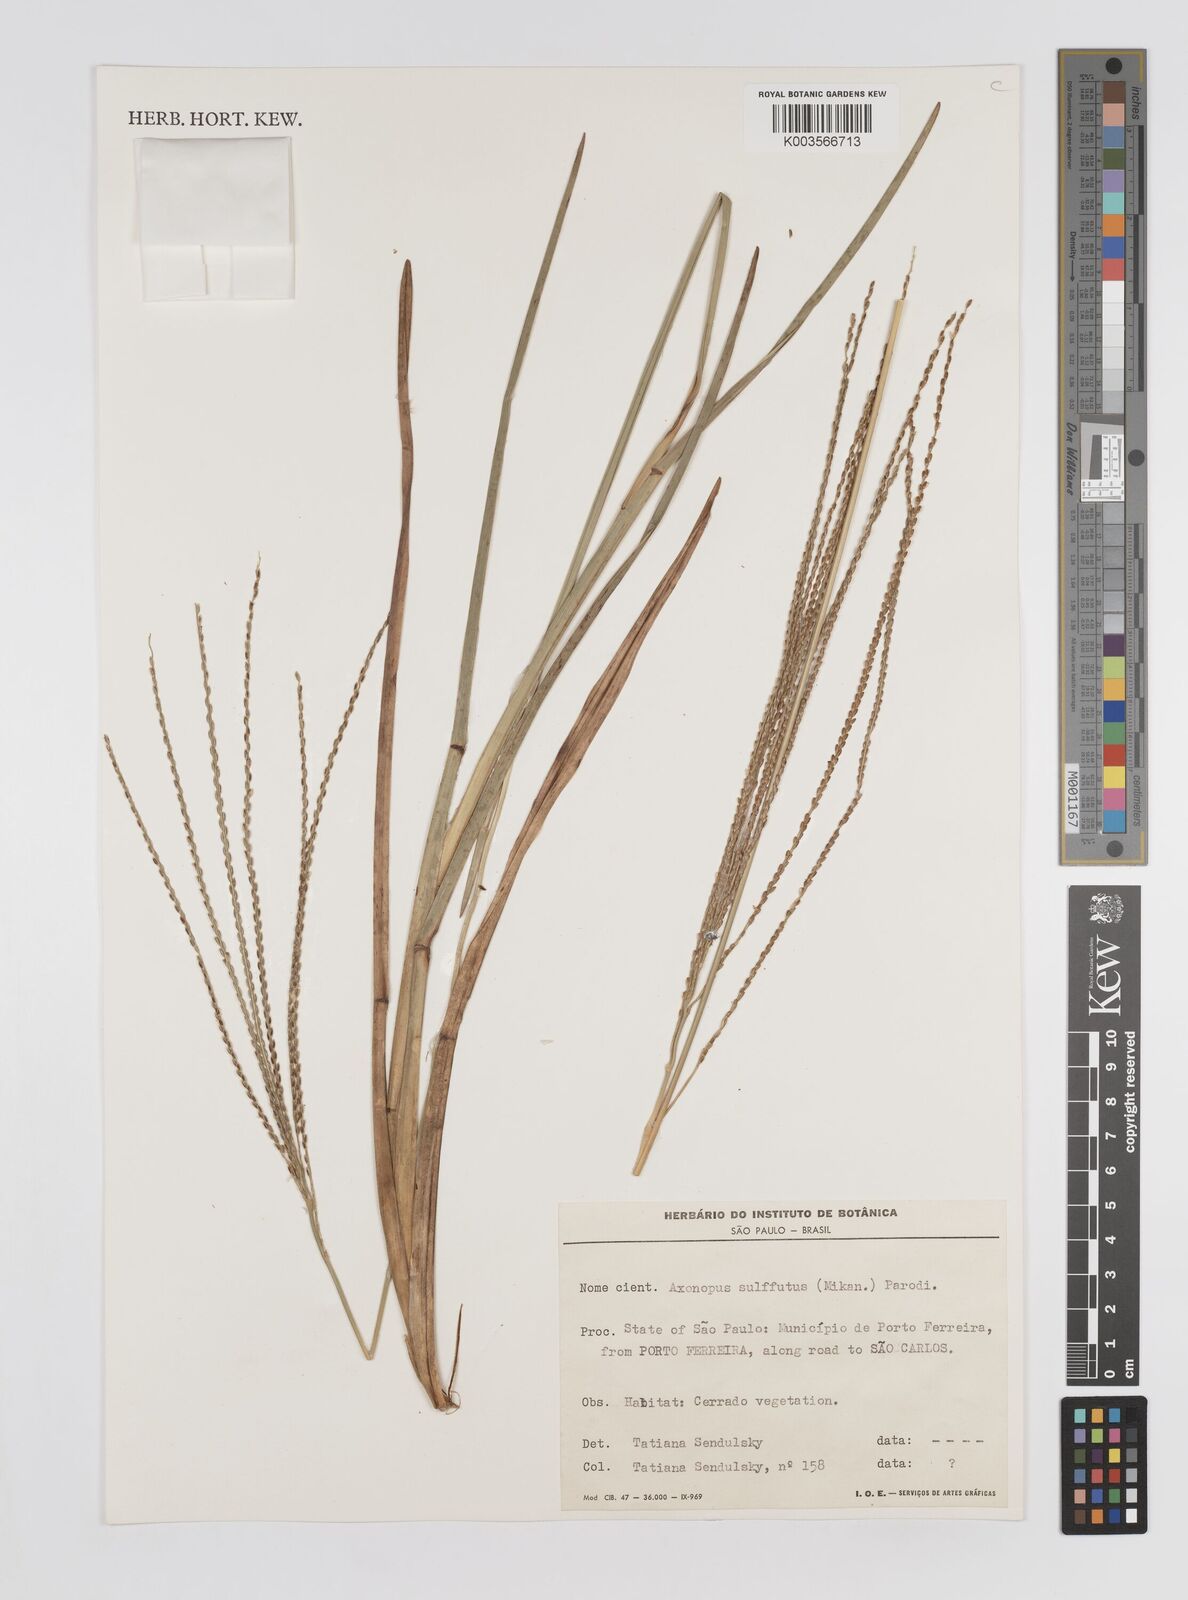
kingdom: Plantae
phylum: Tracheophyta
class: Liliopsida
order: Poales
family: Poaceae
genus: Axonopus
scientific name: Axonopus pressus
